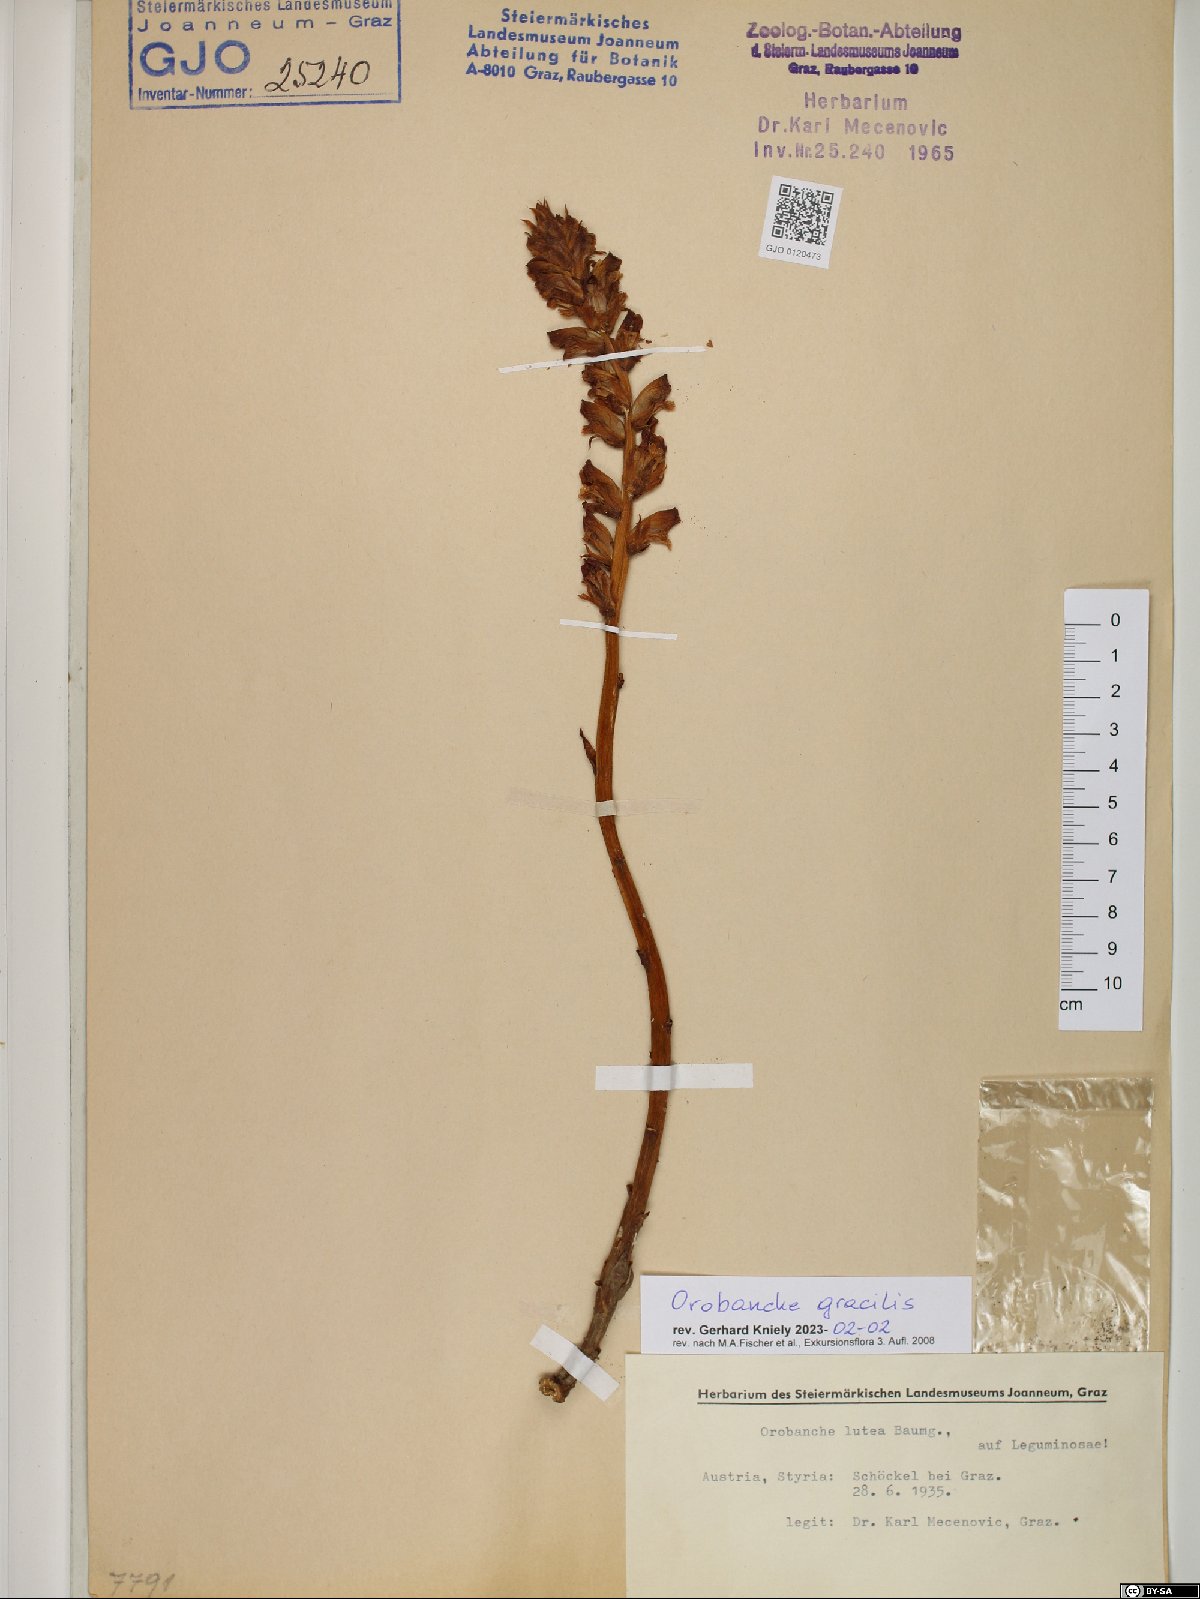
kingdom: Plantae
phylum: Tracheophyta
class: Magnoliopsida
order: Lamiales
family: Orobanchaceae
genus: Orobanche
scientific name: Orobanche gracilis
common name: Slender broomrape
